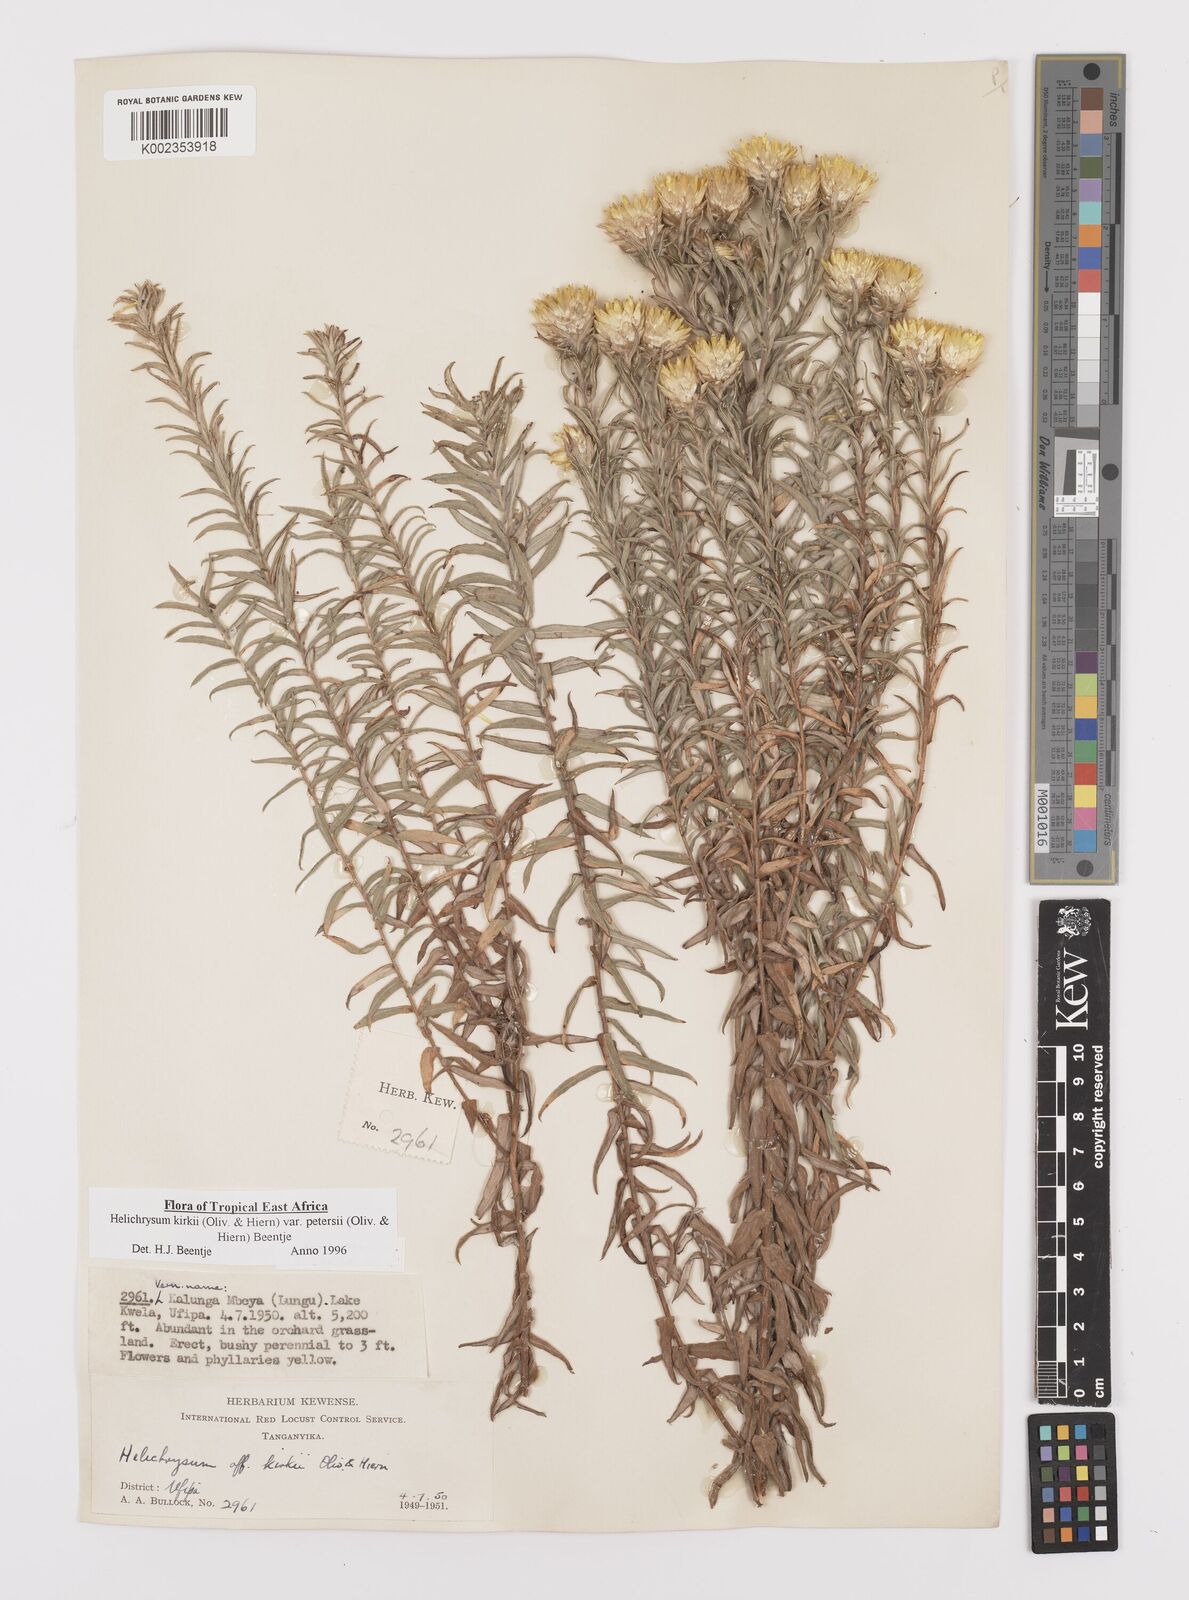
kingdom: Plantae
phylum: Tracheophyta
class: Magnoliopsida
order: Asterales
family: Asteraceae
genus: Helichrysum
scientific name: Helichrysum kirkii
